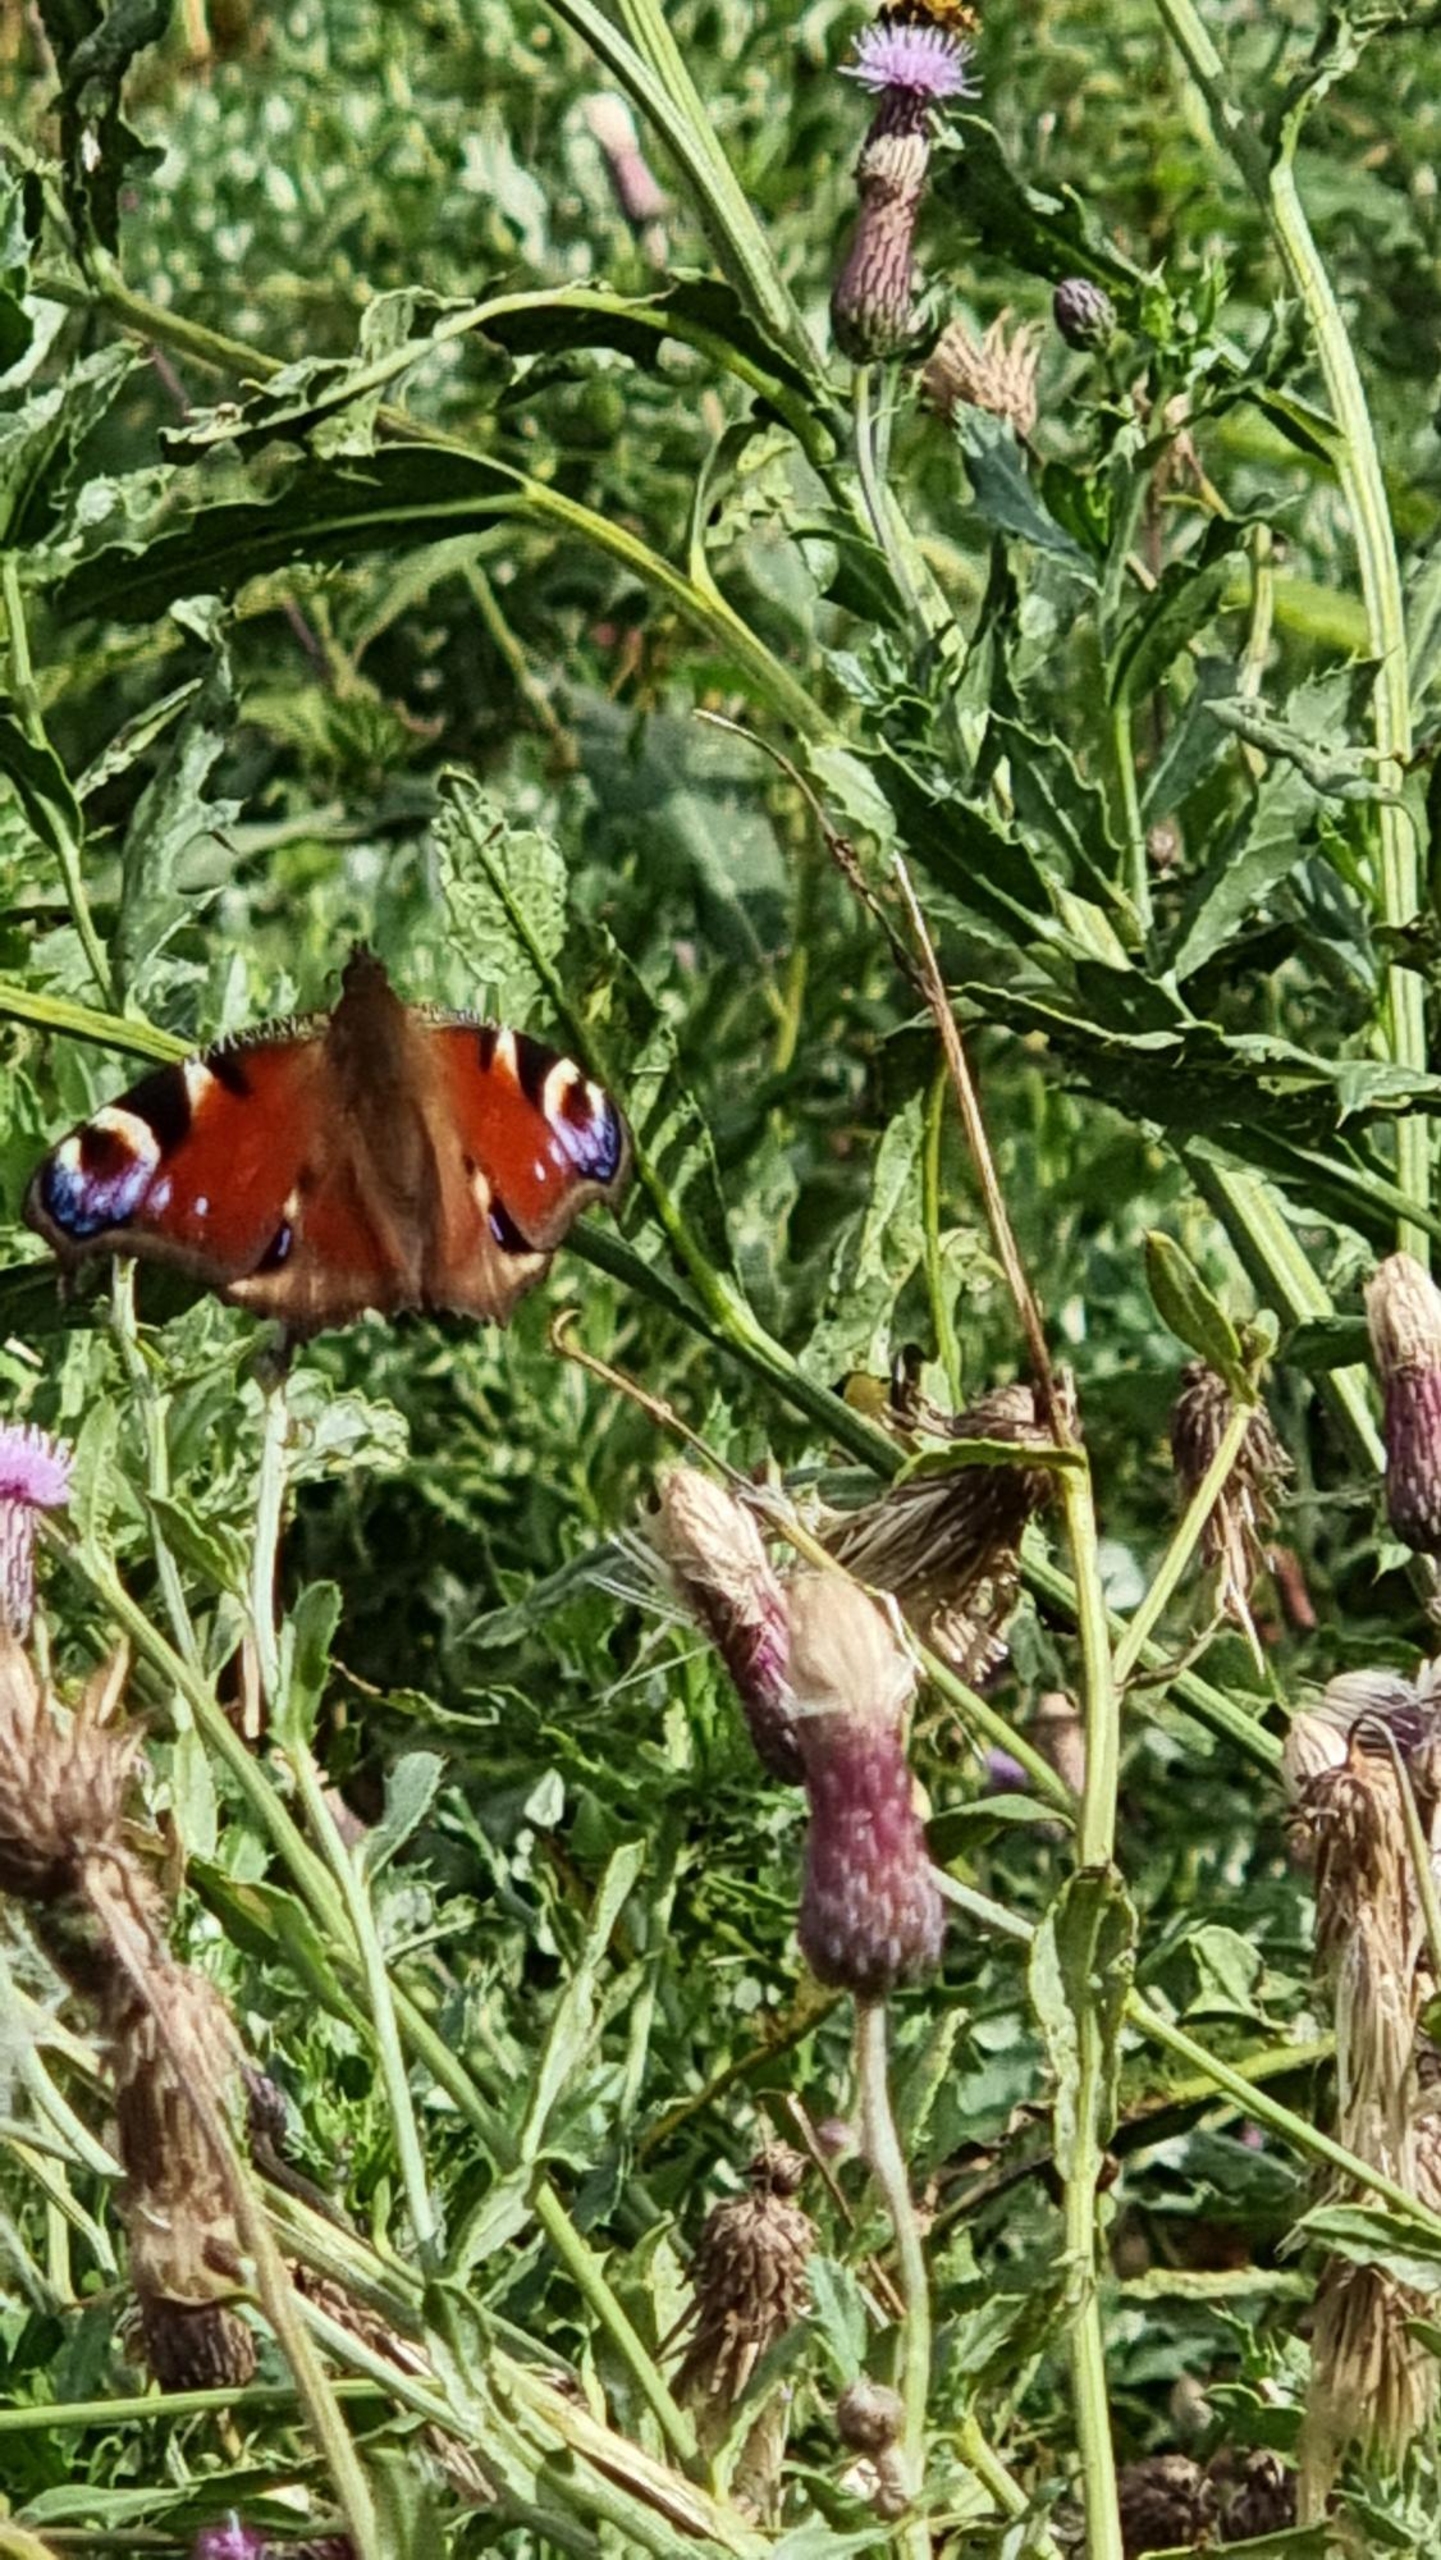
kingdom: Animalia
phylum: Arthropoda
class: Insecta
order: Lepidoptera
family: Nymphalidae
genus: Aglais
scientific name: Aglais io
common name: Dagpåfugleøje
